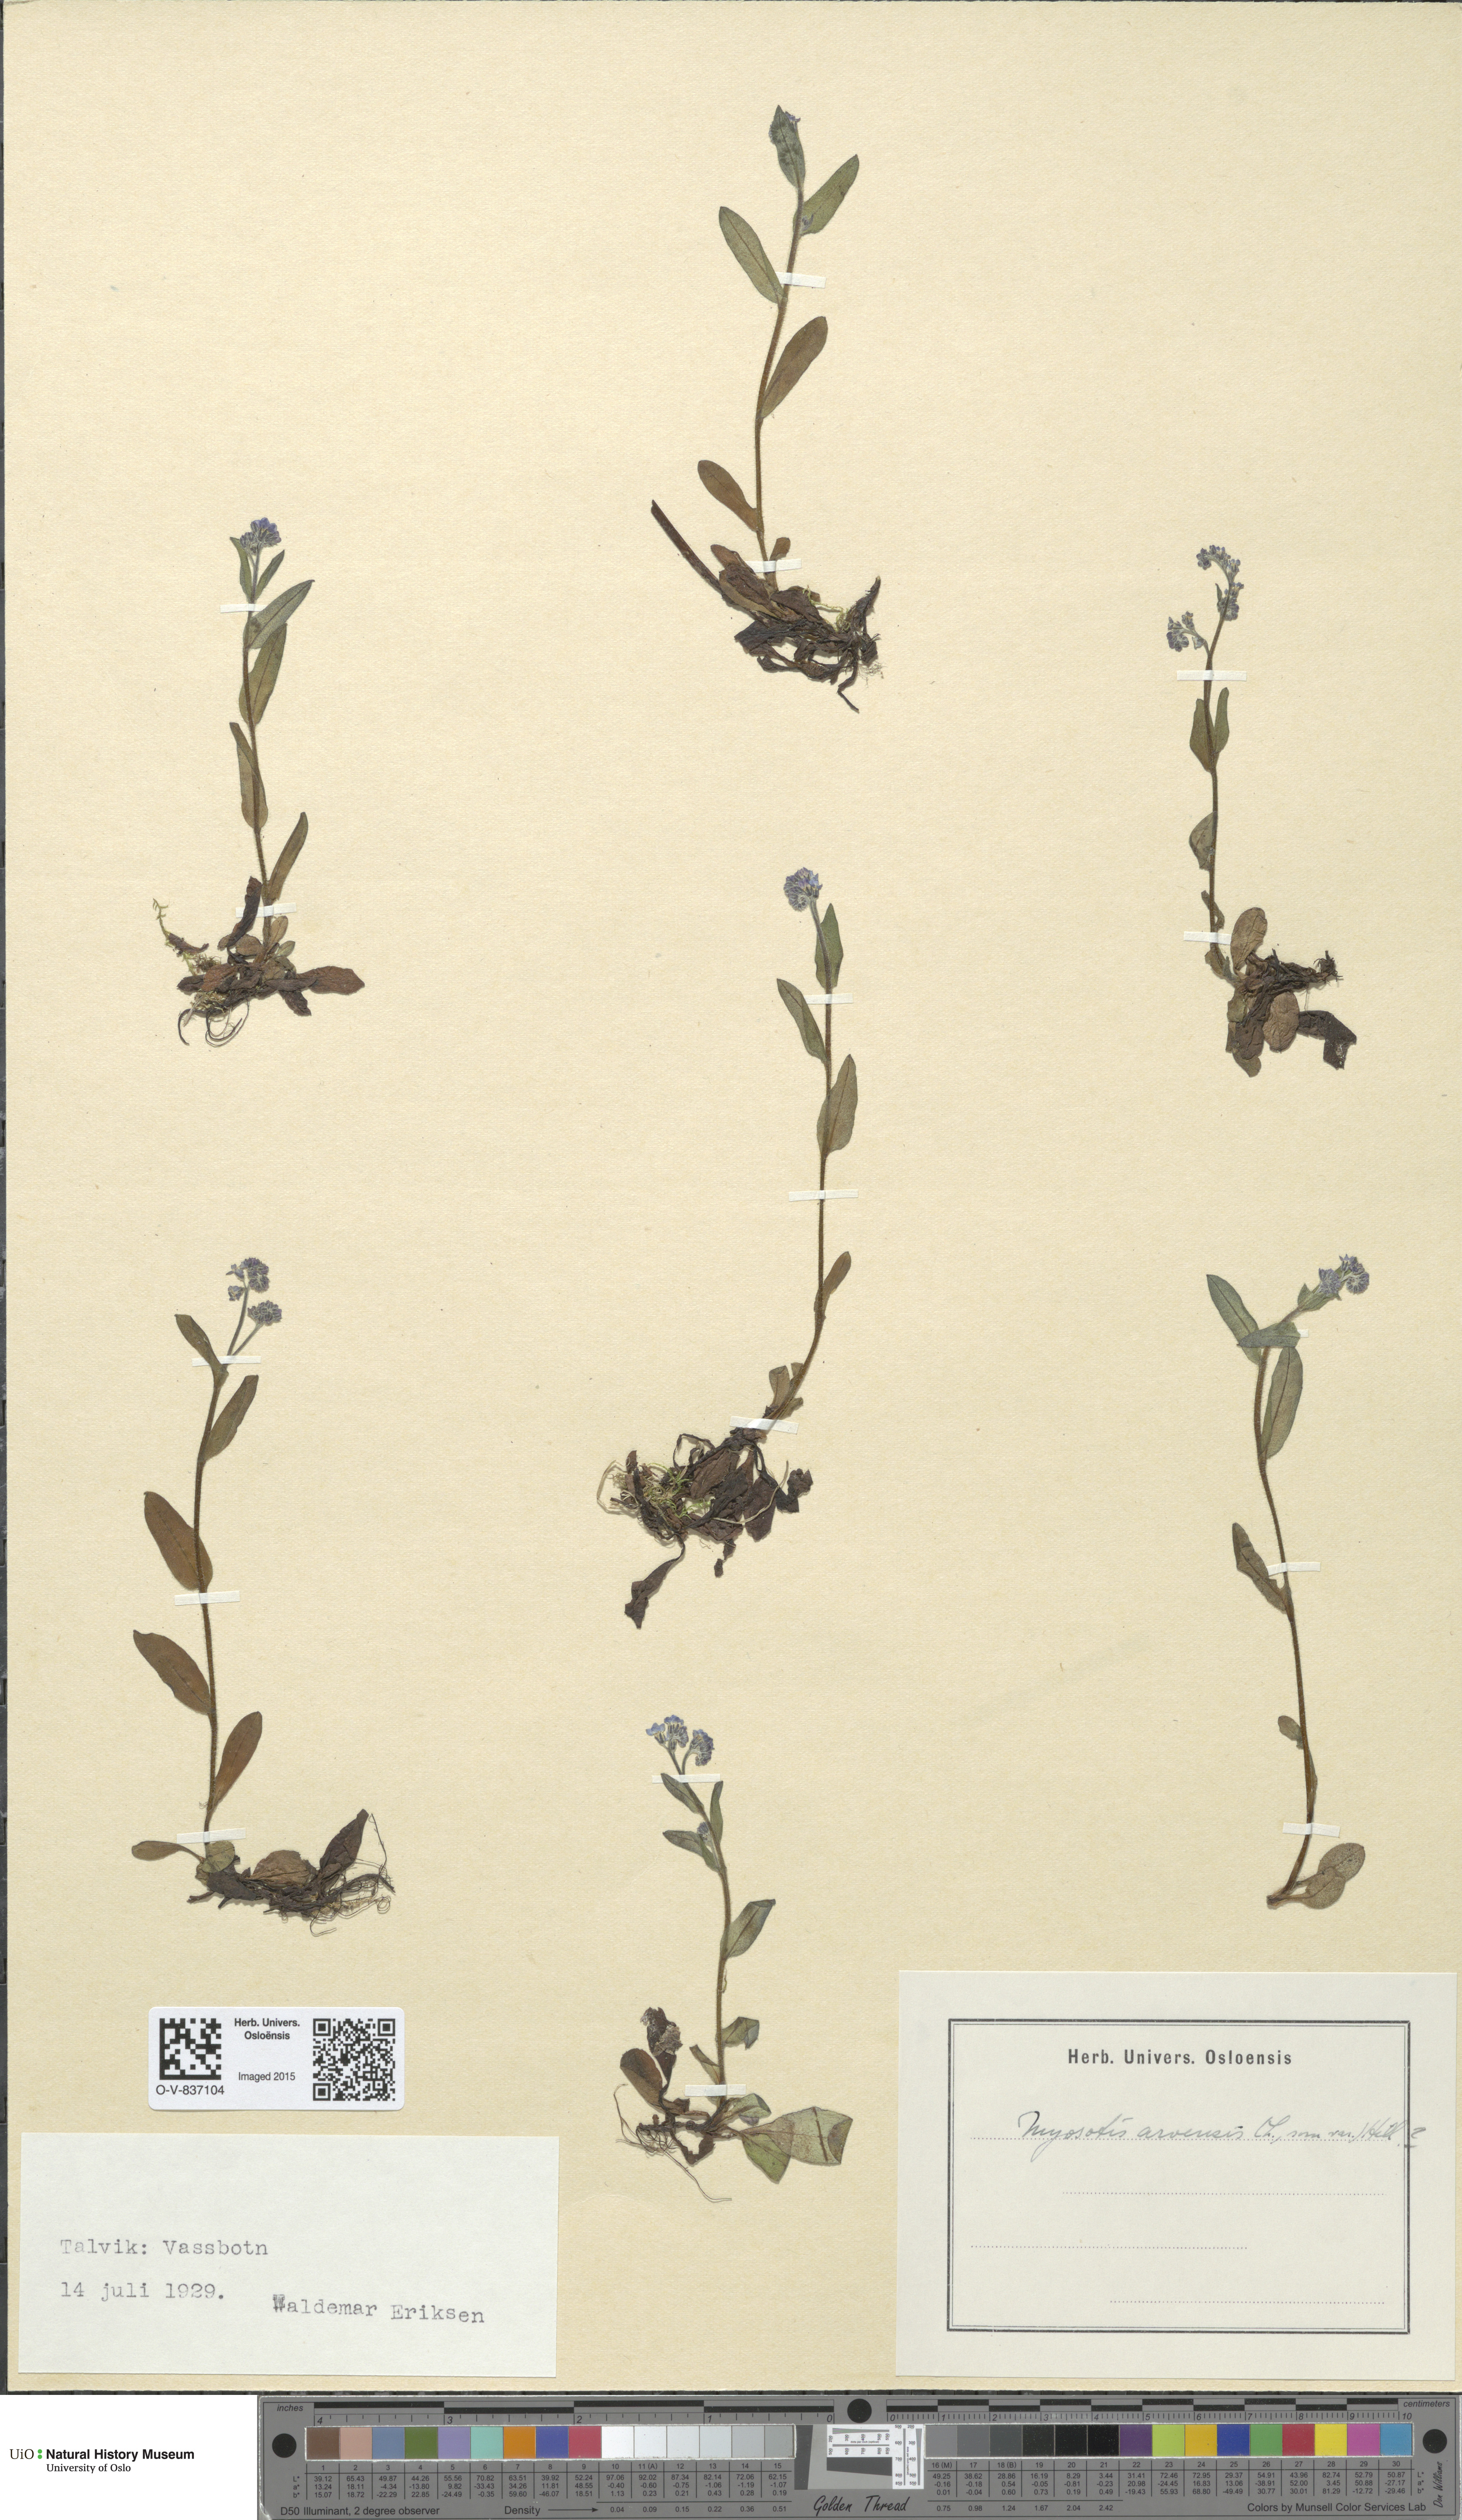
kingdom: Plantae
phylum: Tracheophyta
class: Magnoliopsida
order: Boraginales
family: Boraginaceae
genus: Myosotis
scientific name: Myosotis arvensis
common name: Field forget-me-not
